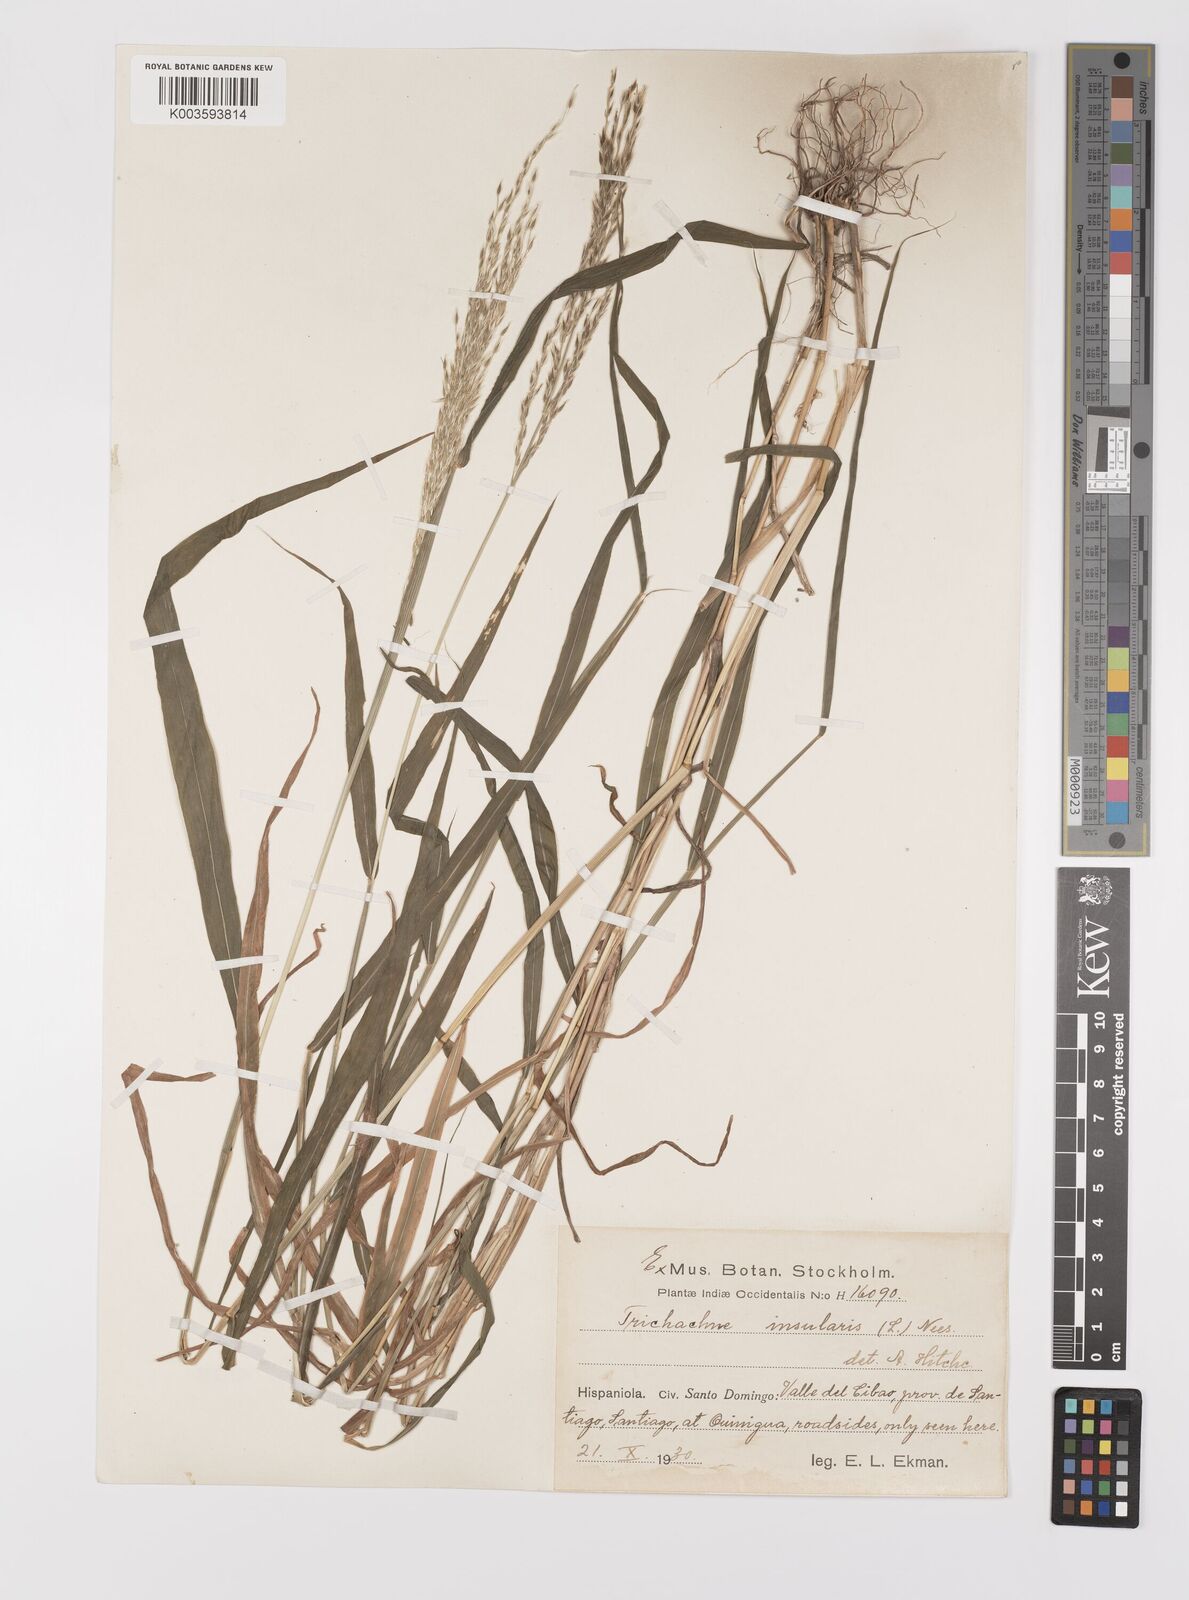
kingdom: Plantae
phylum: Tracheophyta
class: Liliopsida
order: Poales
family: Poaceae
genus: Digitaria
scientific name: Digitaria sellowii
